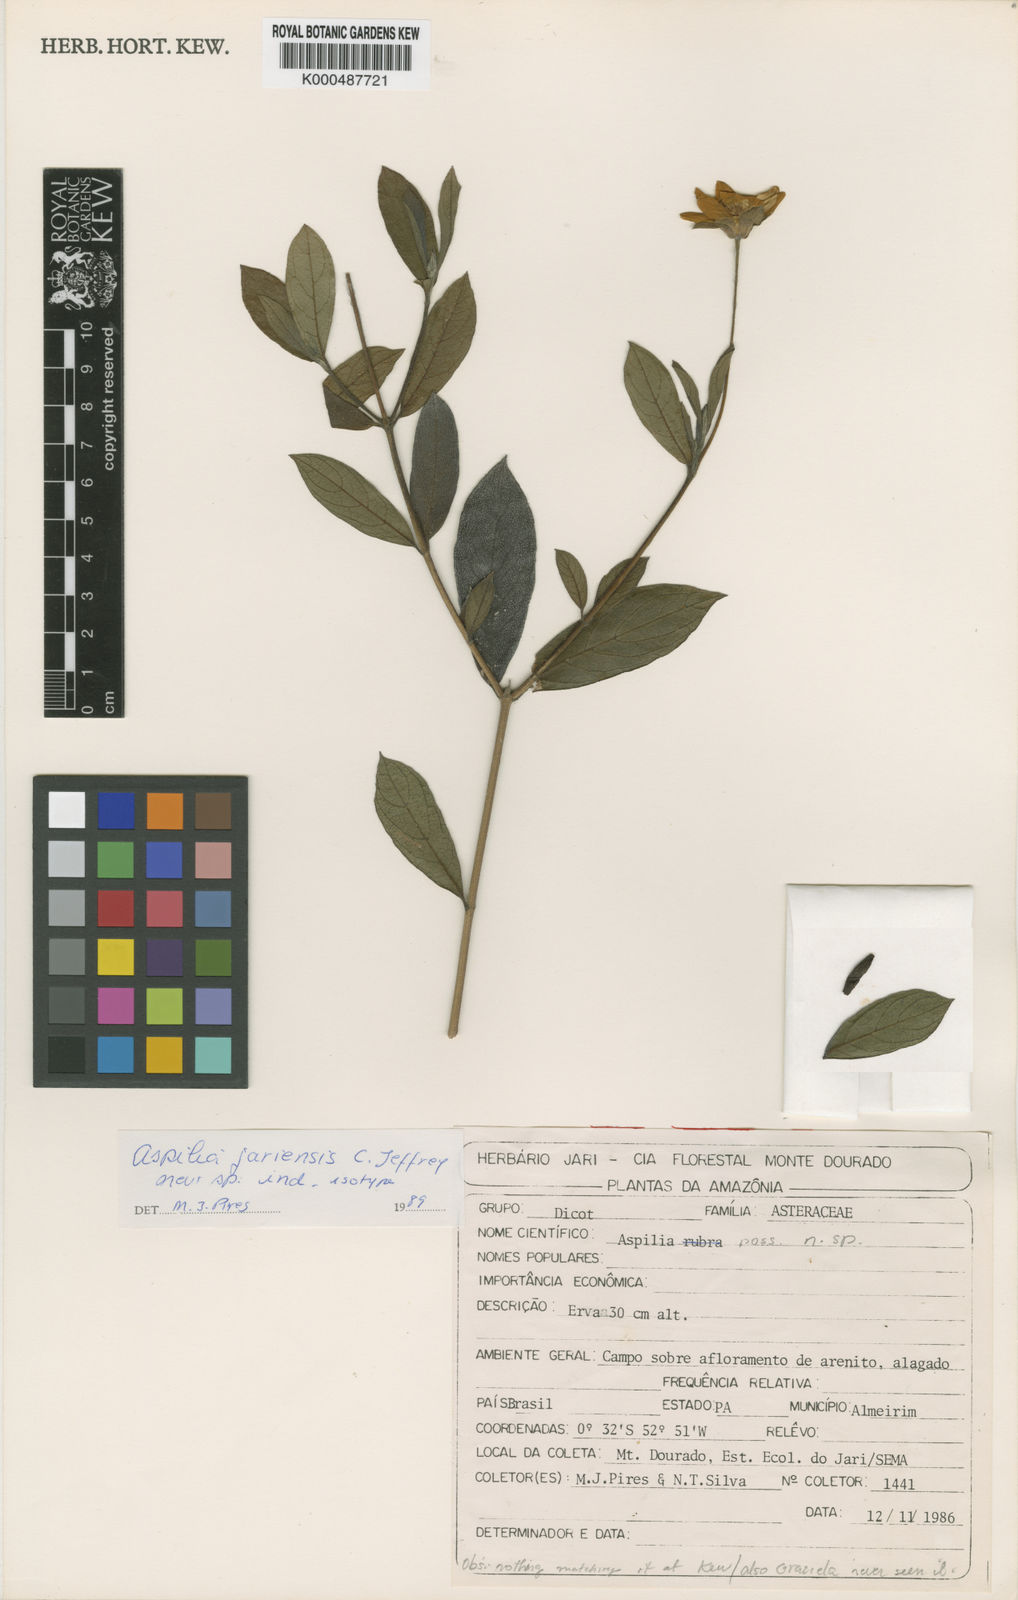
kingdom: Plantae
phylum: Tracheophyta
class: Magnoliopsida
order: Asterales
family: Asteraceae
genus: Aspilia
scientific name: Aspilia paraensis
